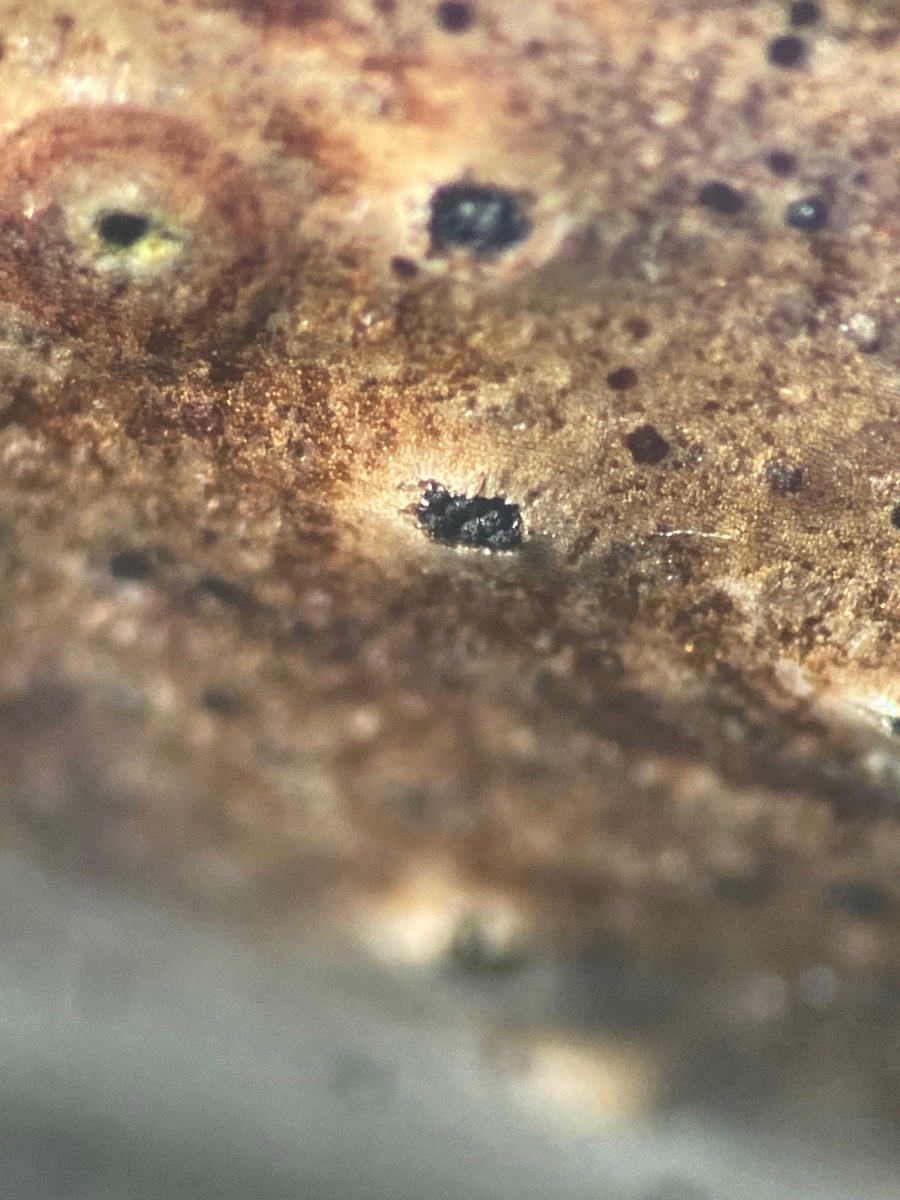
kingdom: Fungi
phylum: Ascomycota
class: Sordariomycetes
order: Diaporthales
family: Gnomoniaceae
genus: Anisogramma
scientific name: Anisogramma vepris
